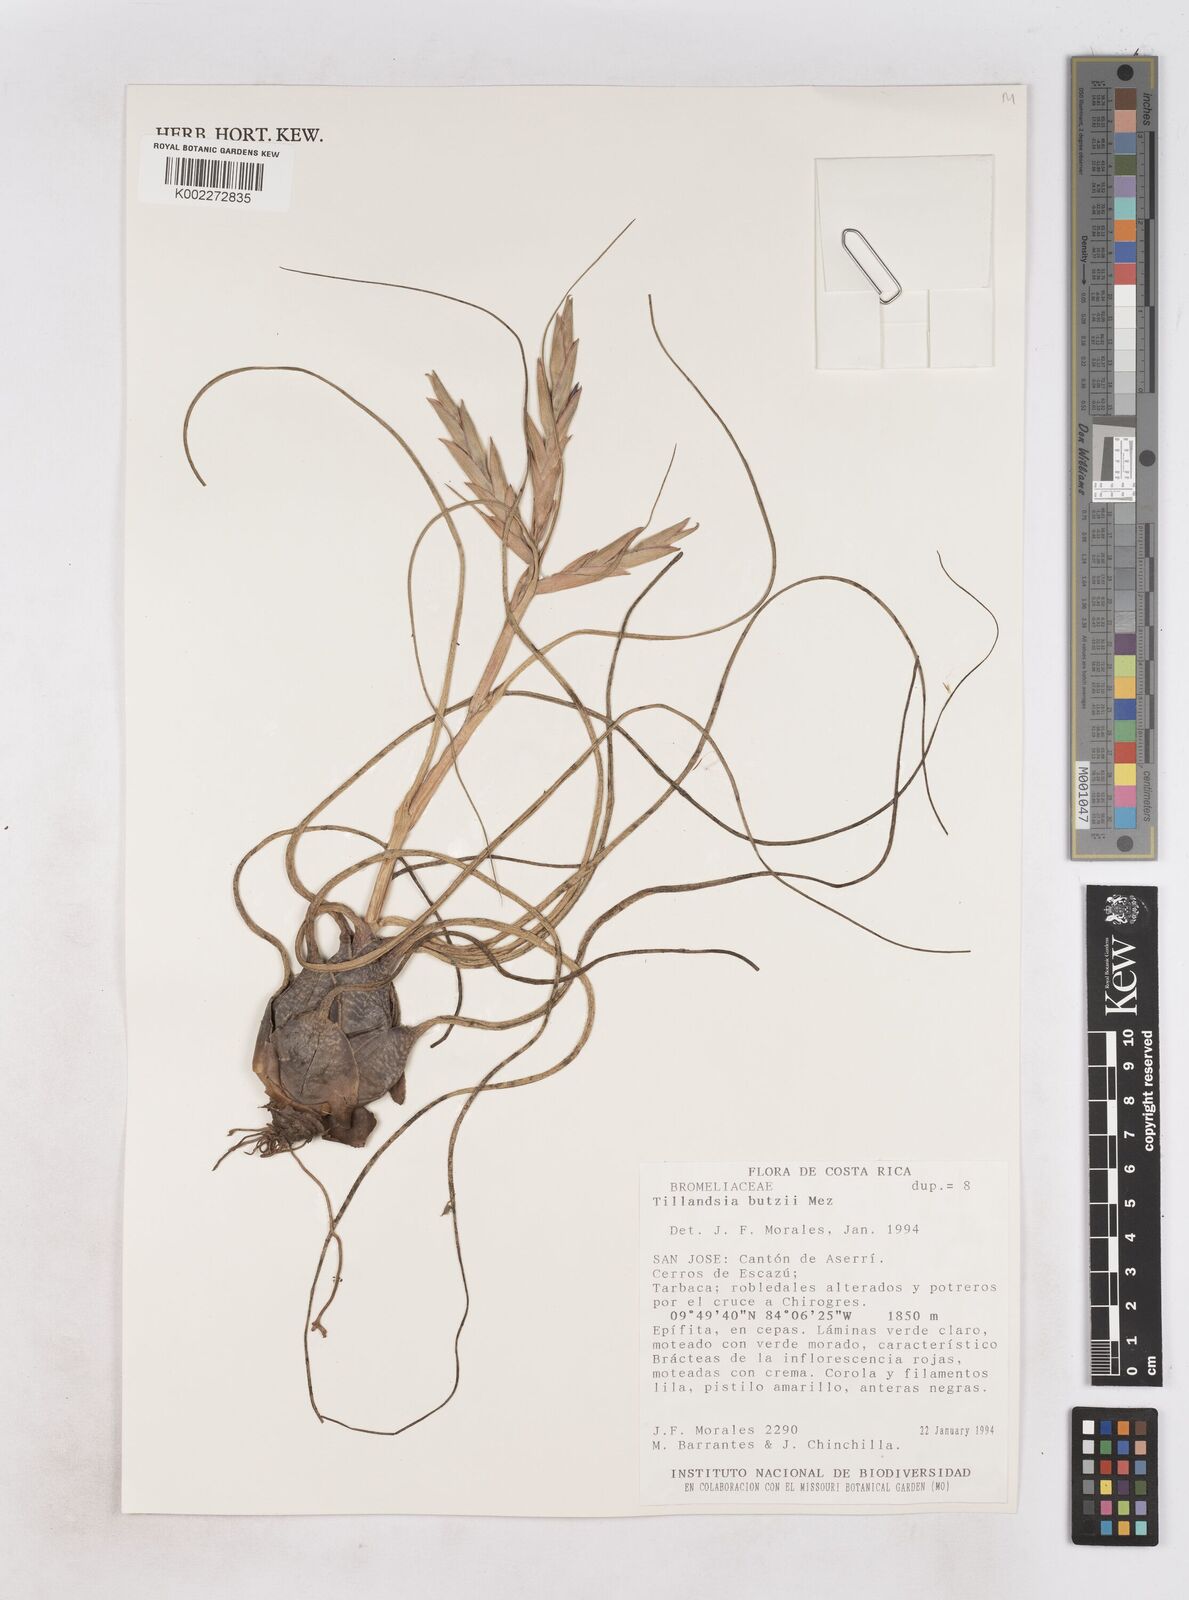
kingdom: Plantae
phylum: Tracheophyta
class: Liliopsida
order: Poales
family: Bromeliaceae
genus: Tillandsia
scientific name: Tillandsia butzii
